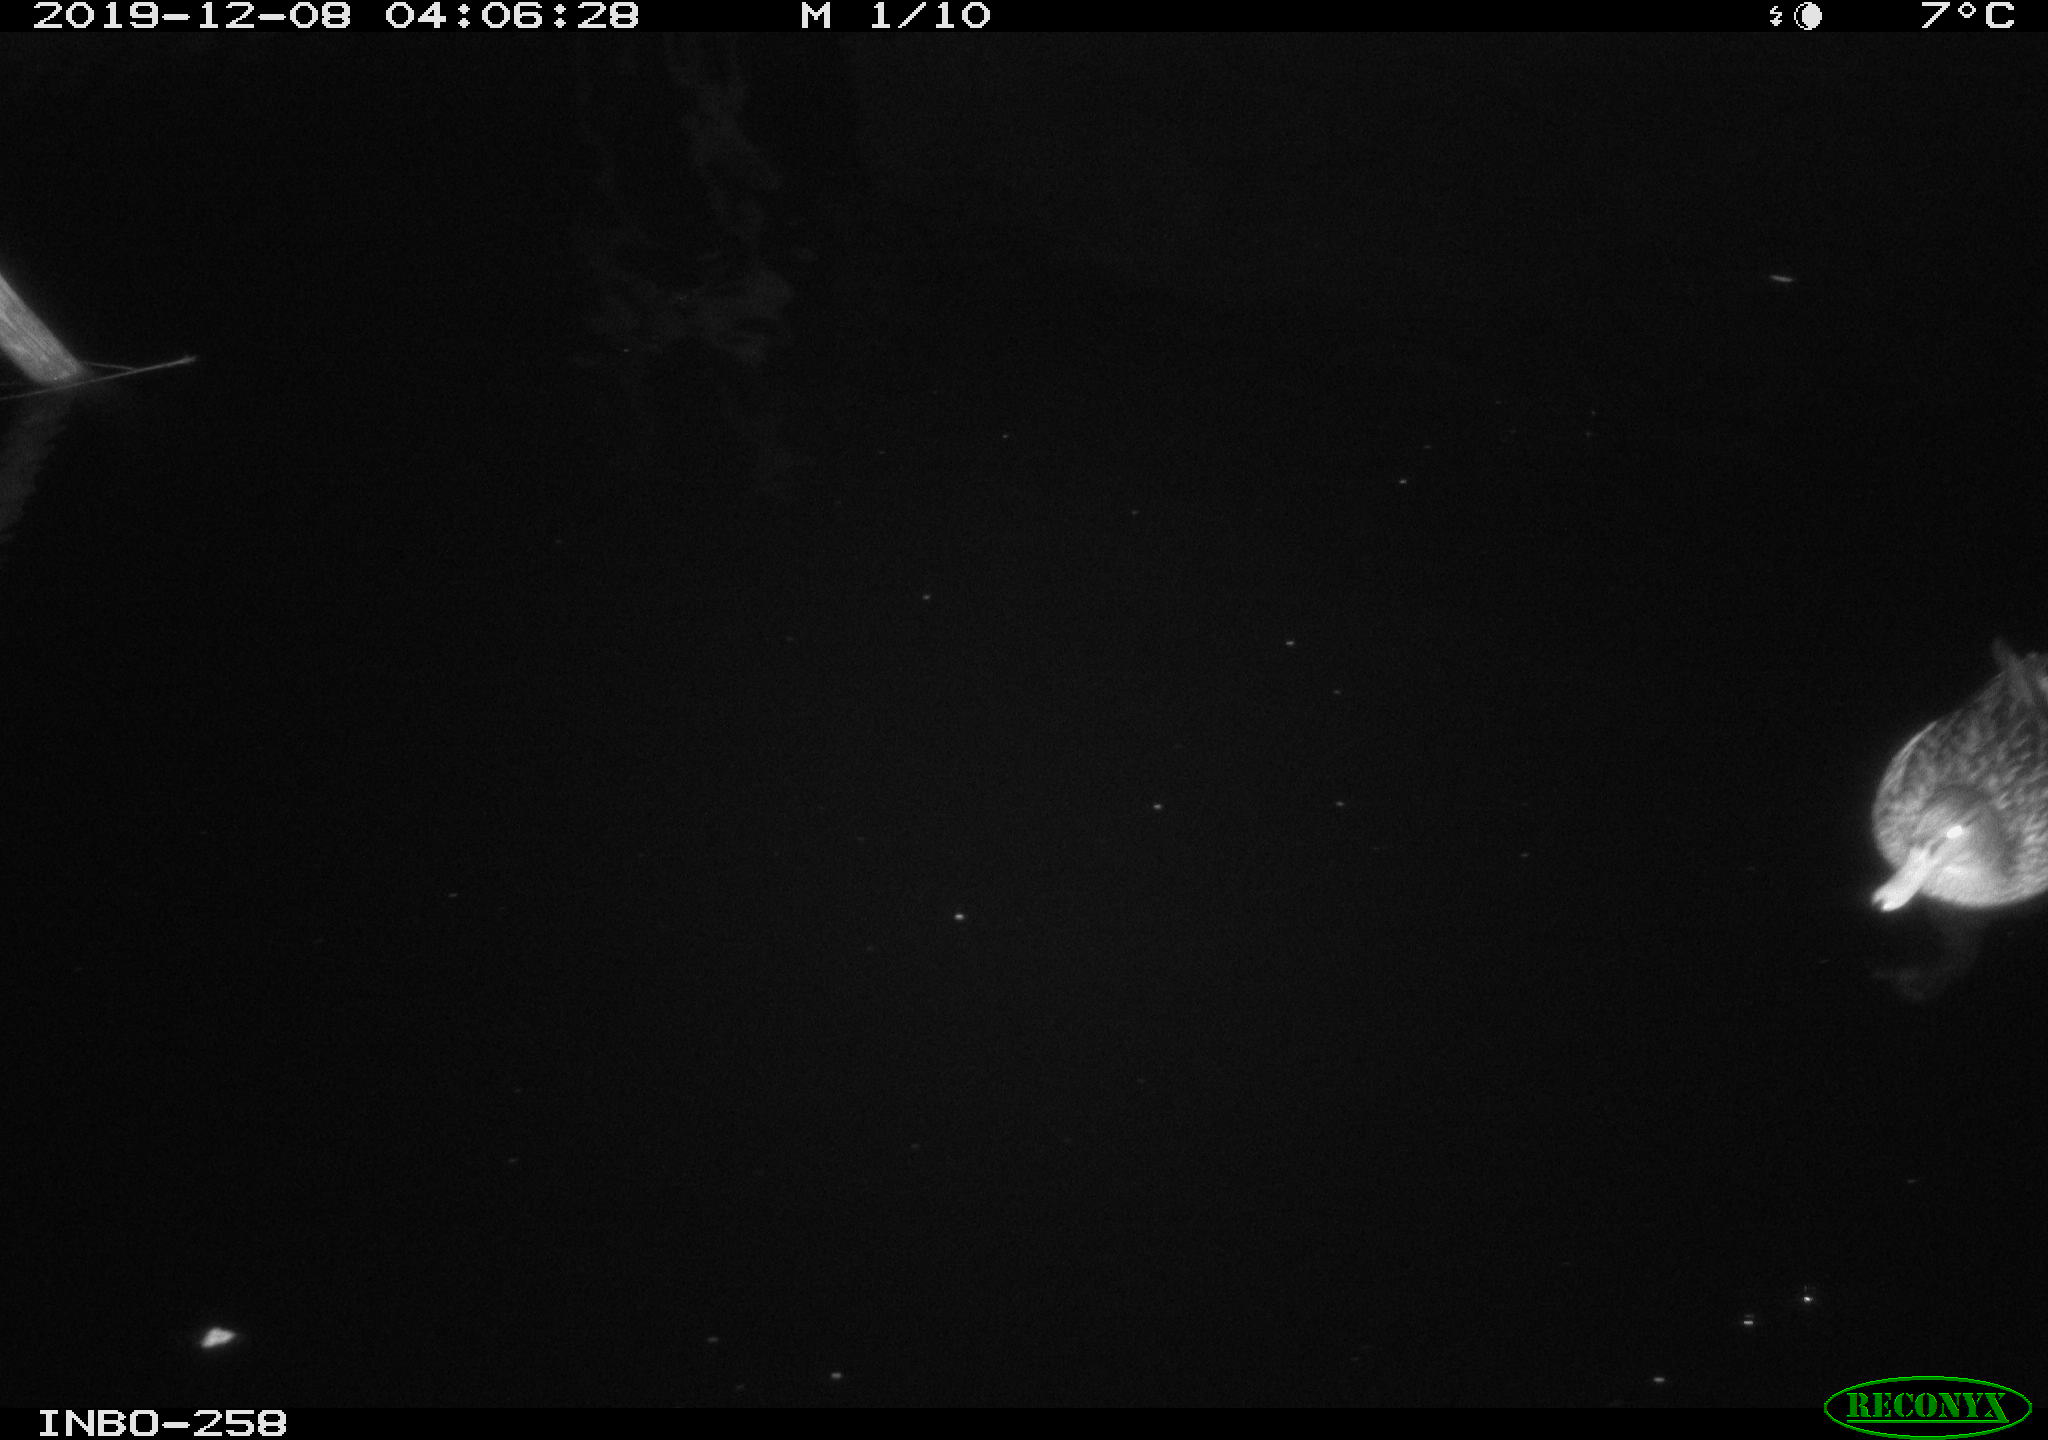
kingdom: Animalia
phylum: Chordata
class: Aves
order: Anseriformes
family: Anatidae
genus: Anas
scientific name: Anas platyrhynchos
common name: Mallard
